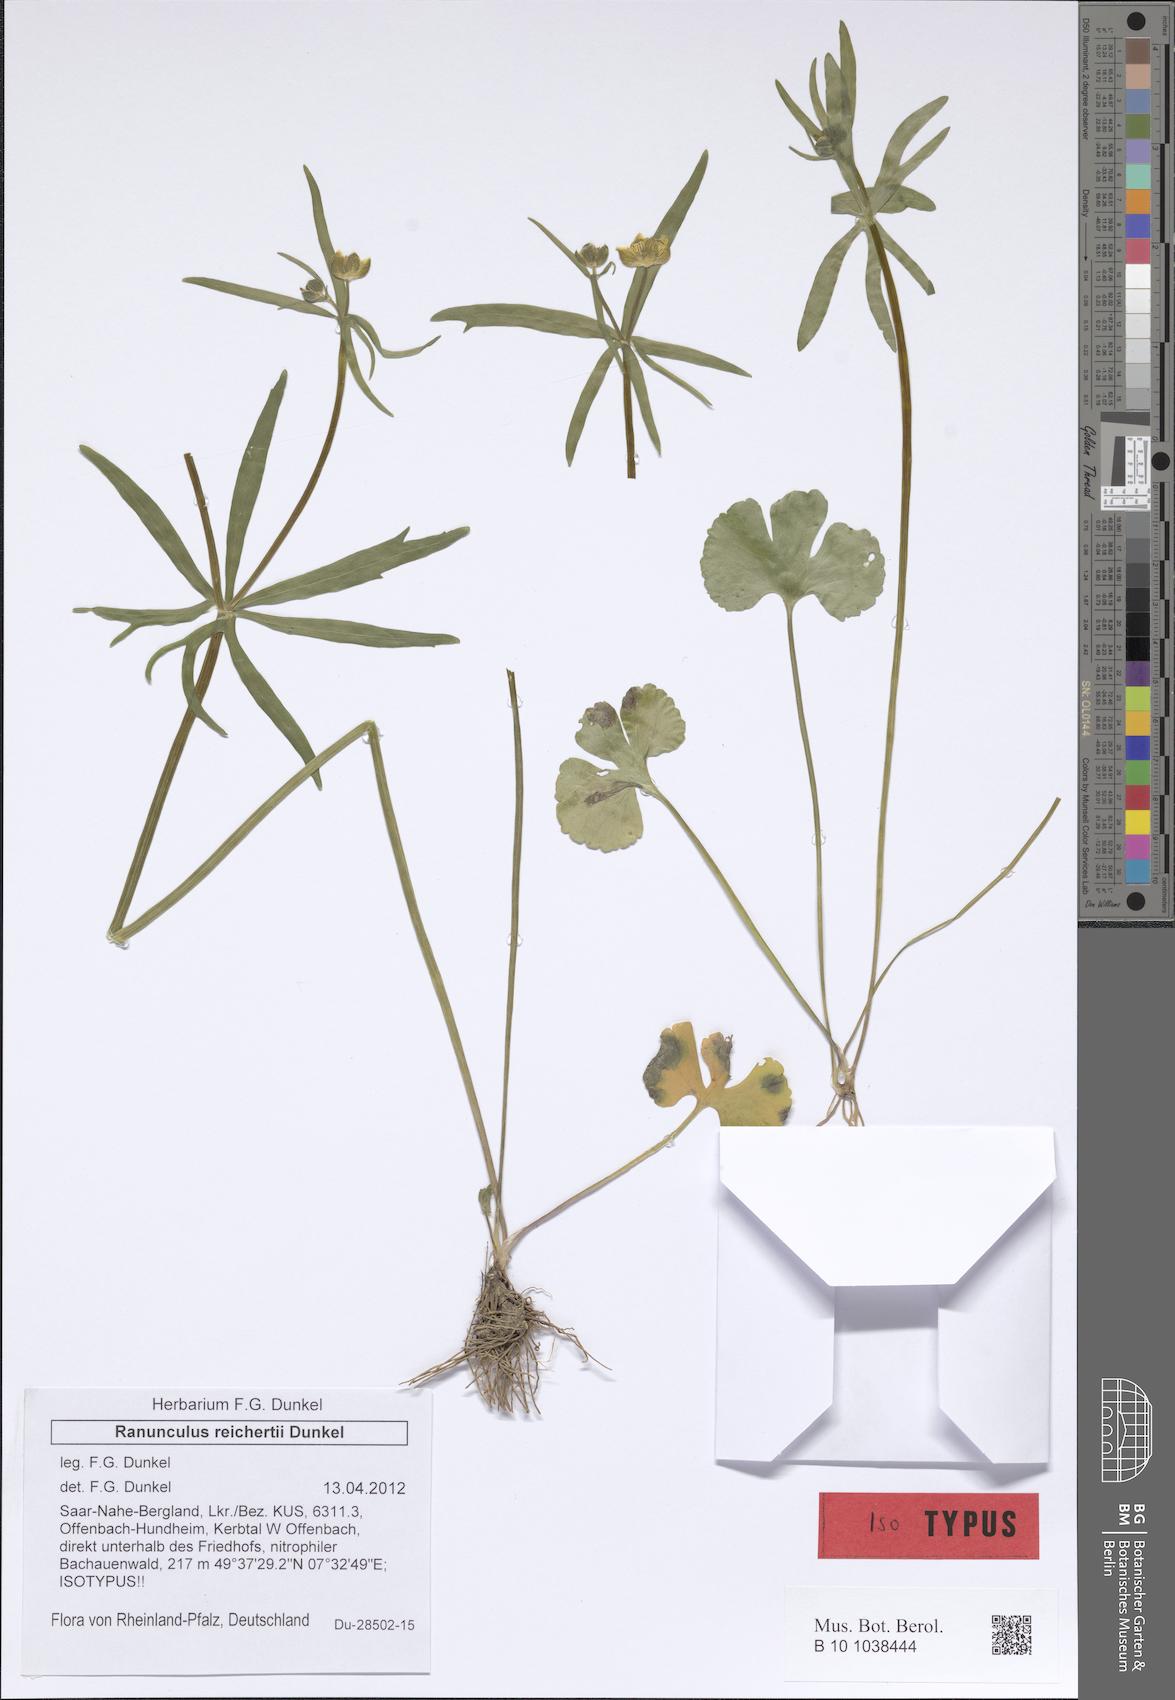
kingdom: Plantae
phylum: Tracheophyta
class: Magnoliopsida
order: Ranunculales
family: Ranunculaceae
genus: Ranunculus
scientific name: Ranunculus reichertii
